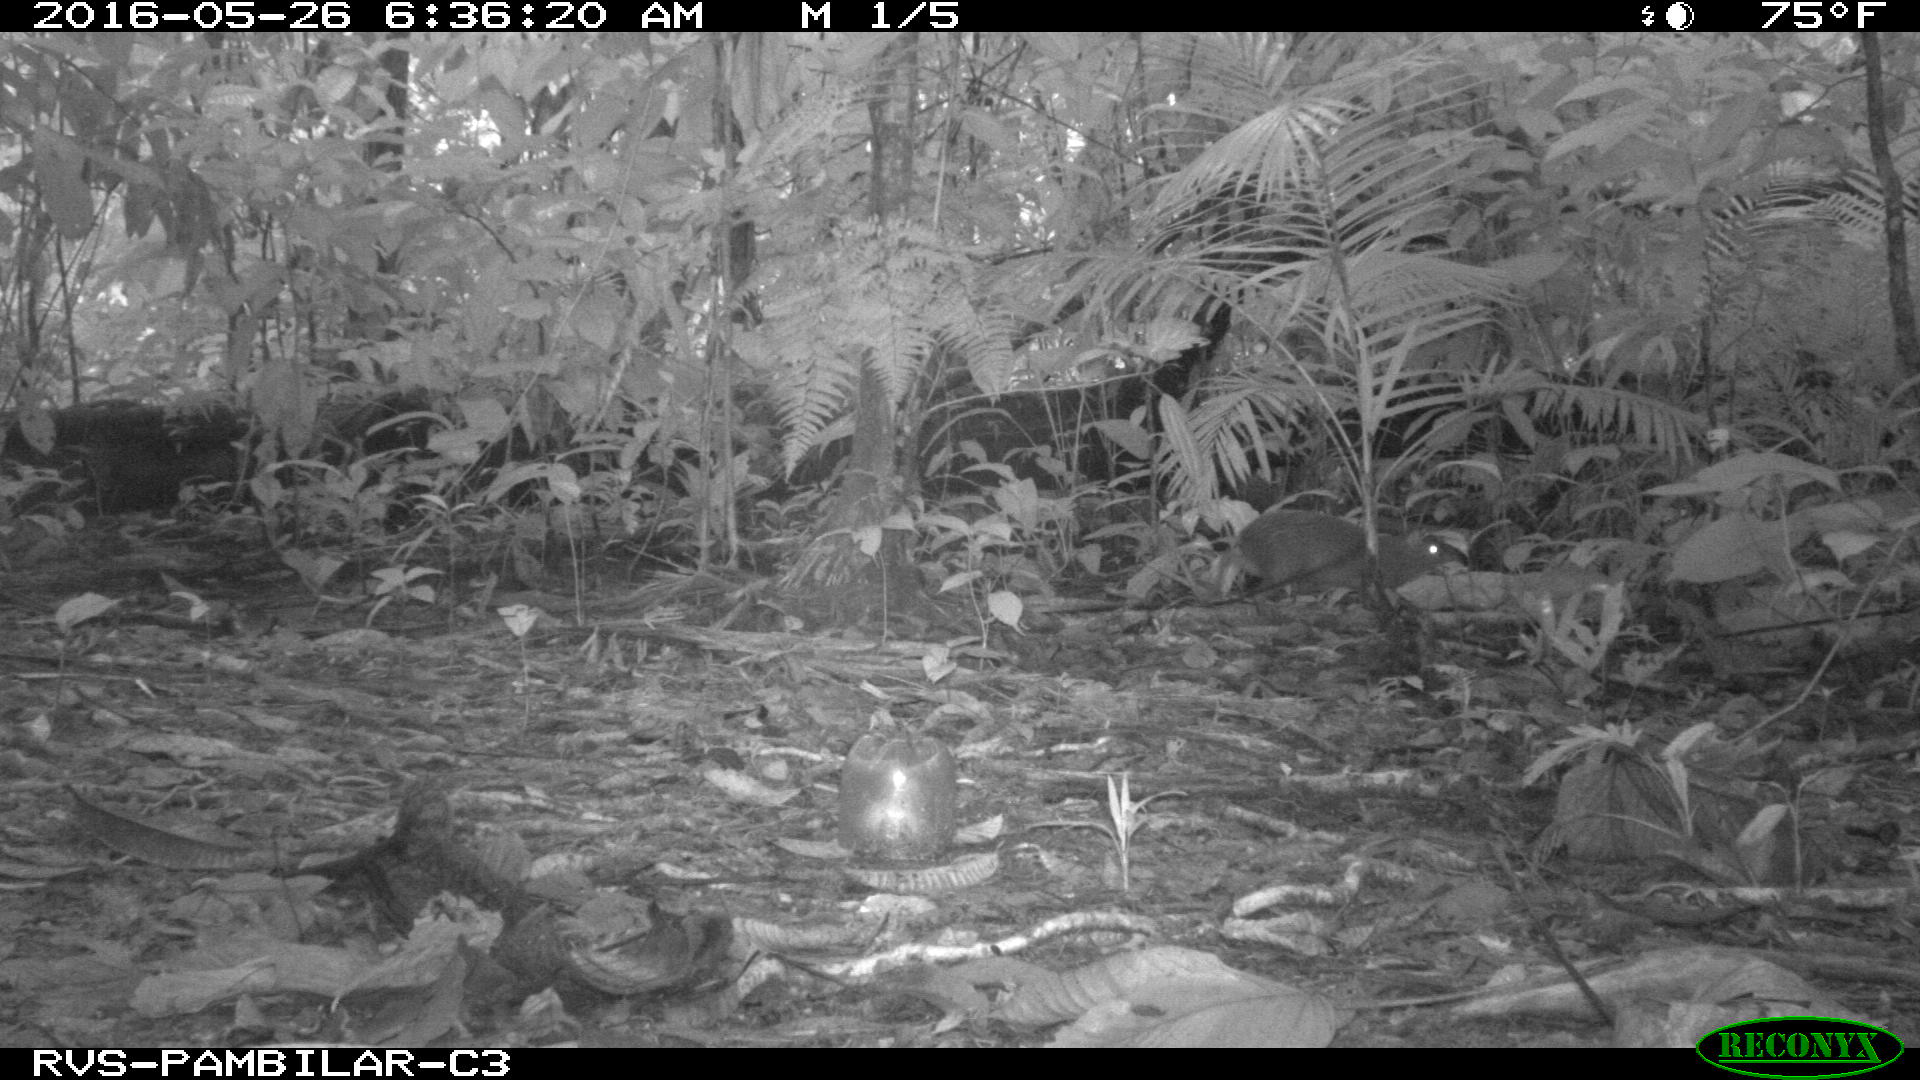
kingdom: Animalia
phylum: Chordata
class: Mammalia
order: Rodentia
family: Dasyproctidae
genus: Dasyprocta
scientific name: Dasyprocta punctata
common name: Central american agouti
